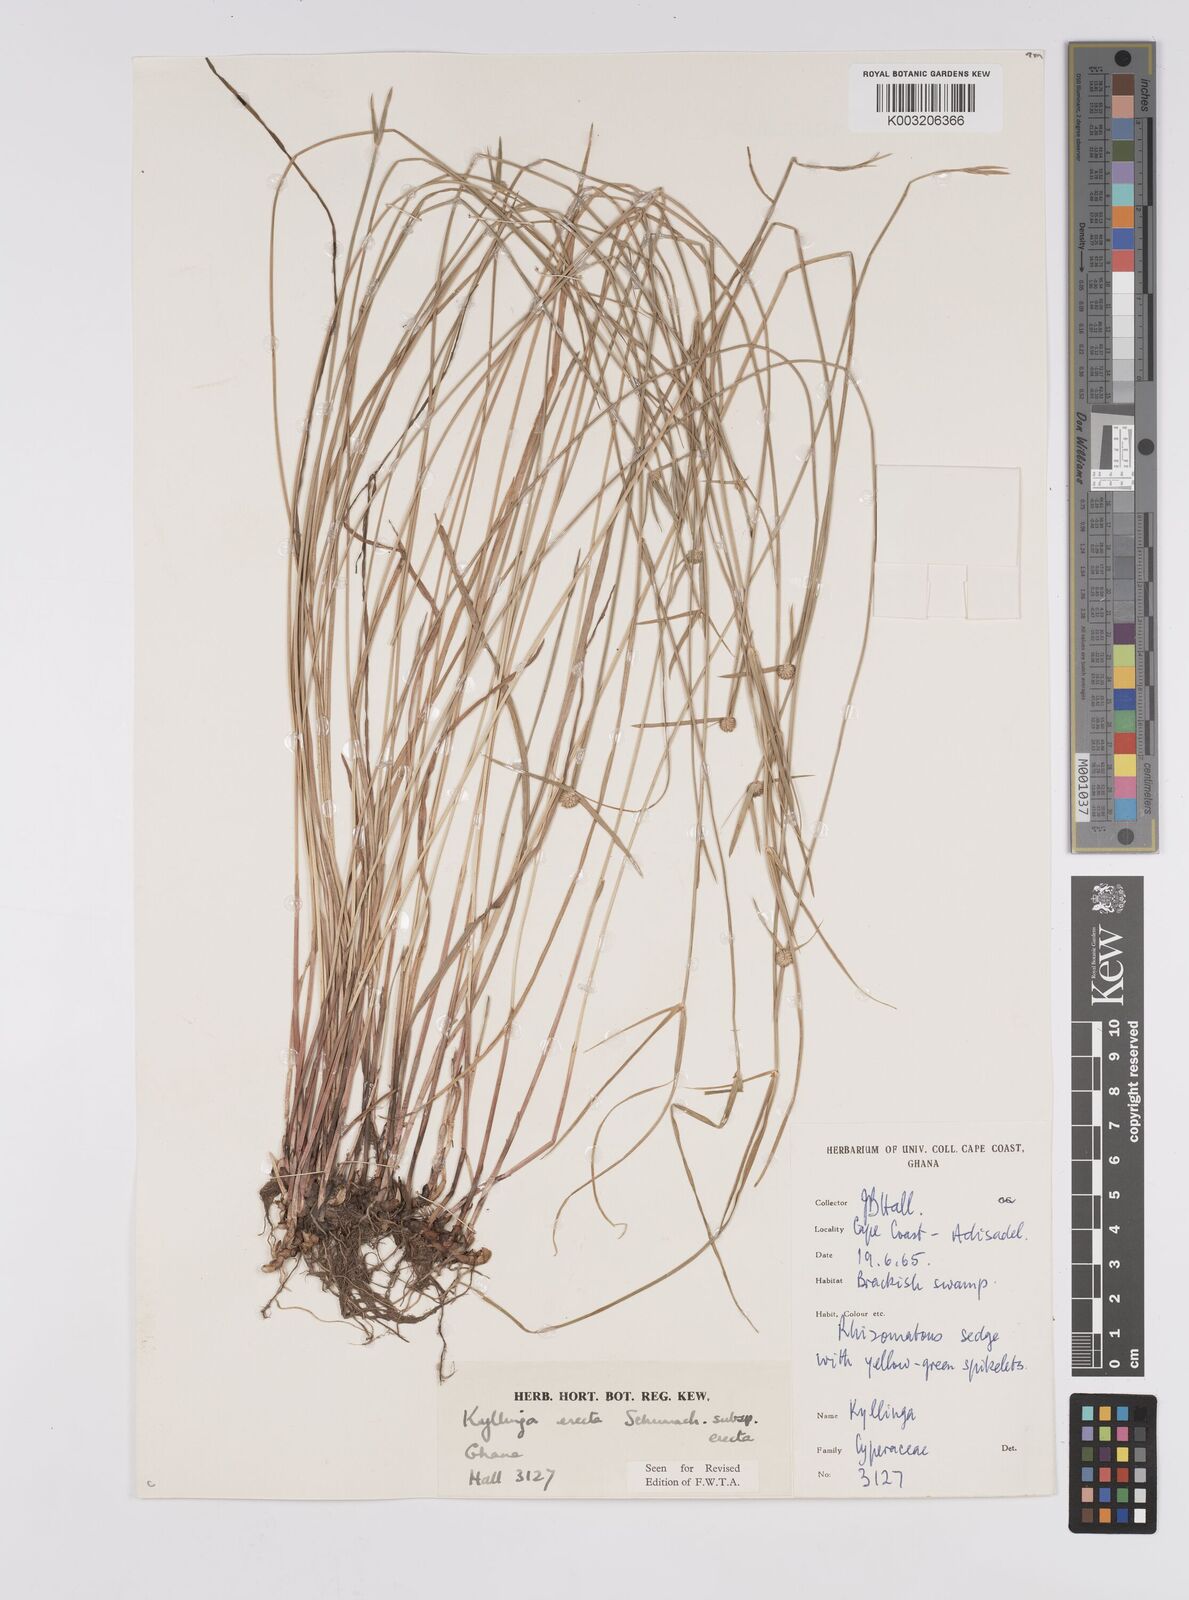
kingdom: Plantae
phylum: Tracheophyta
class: Liliopsida
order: Poales
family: Cyperaceae
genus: Cyperus
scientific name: Cyperus erectus
